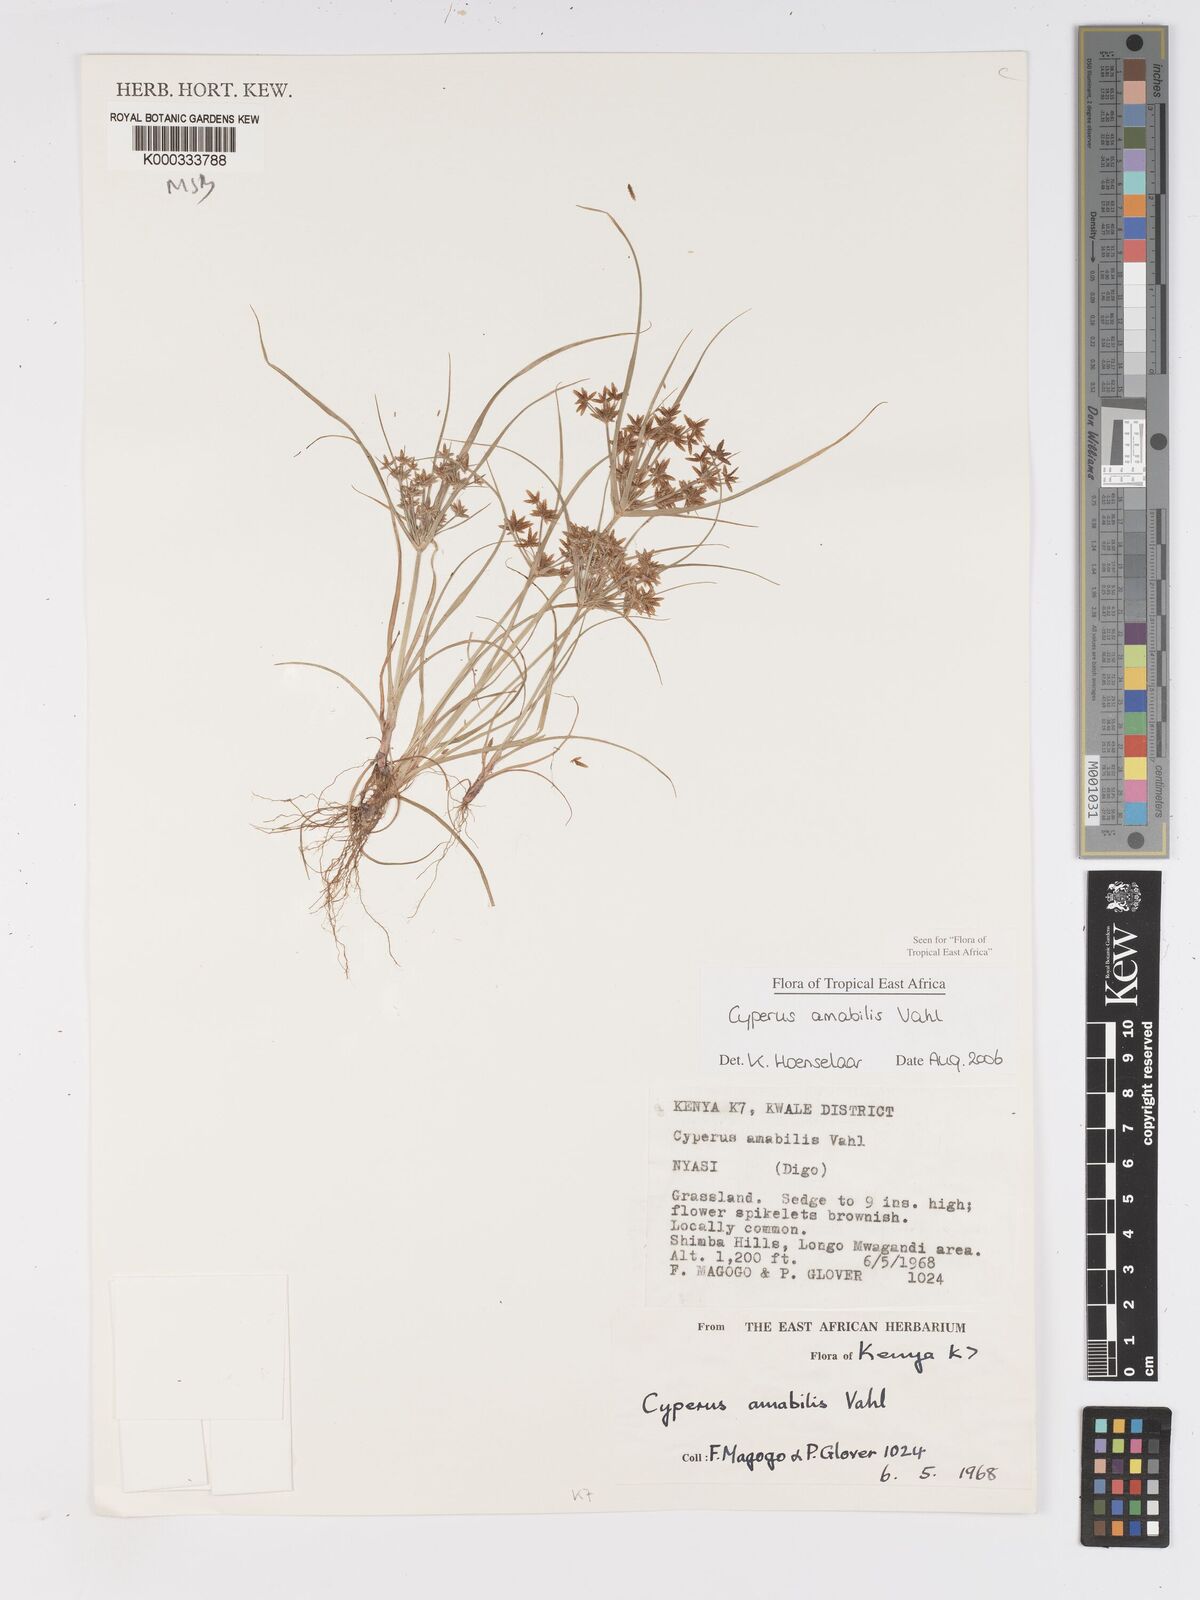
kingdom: Plantae
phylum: Tracheophyta
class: Liliopsida
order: Poales
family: Cyperaceae
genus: Cyperus
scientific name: Cyperus amabilis
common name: Foothill flat sedge
